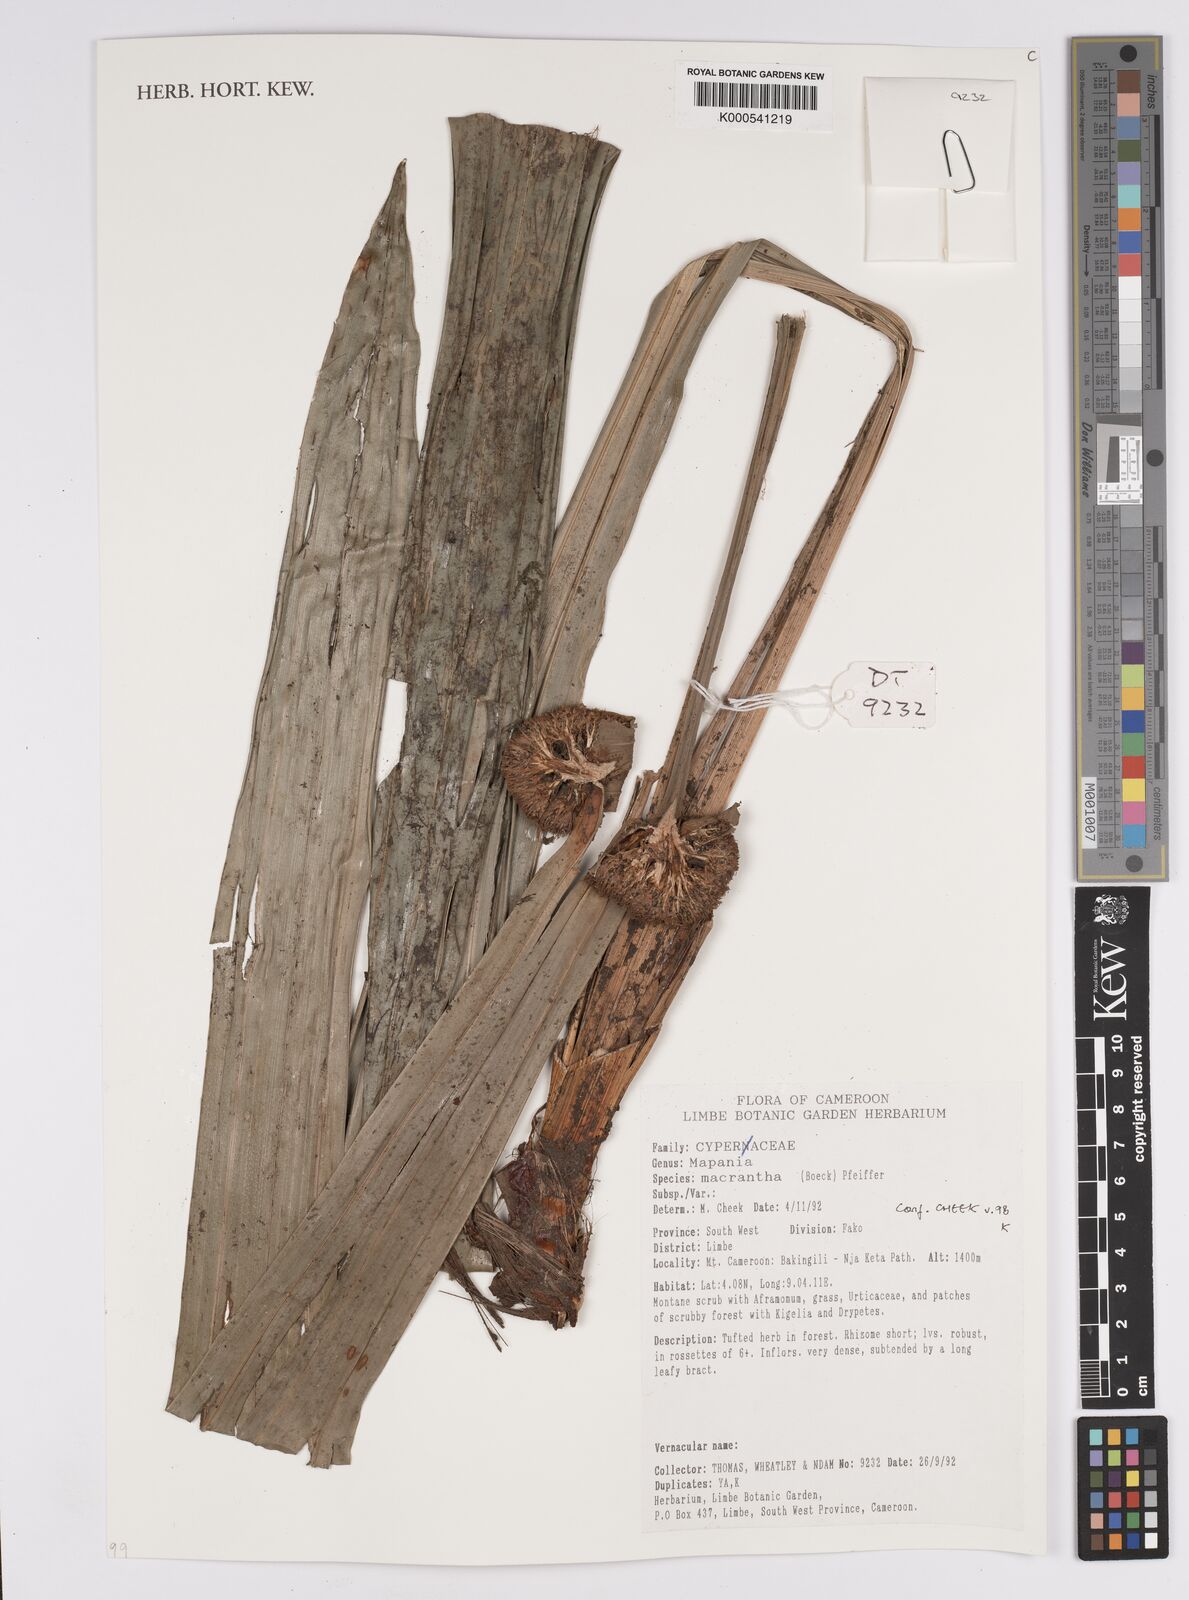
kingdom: Plantae
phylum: Tracheophyta
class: Liliopsida
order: Poales
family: Cyperaceae
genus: Mapania
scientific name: Mapania macrantha
